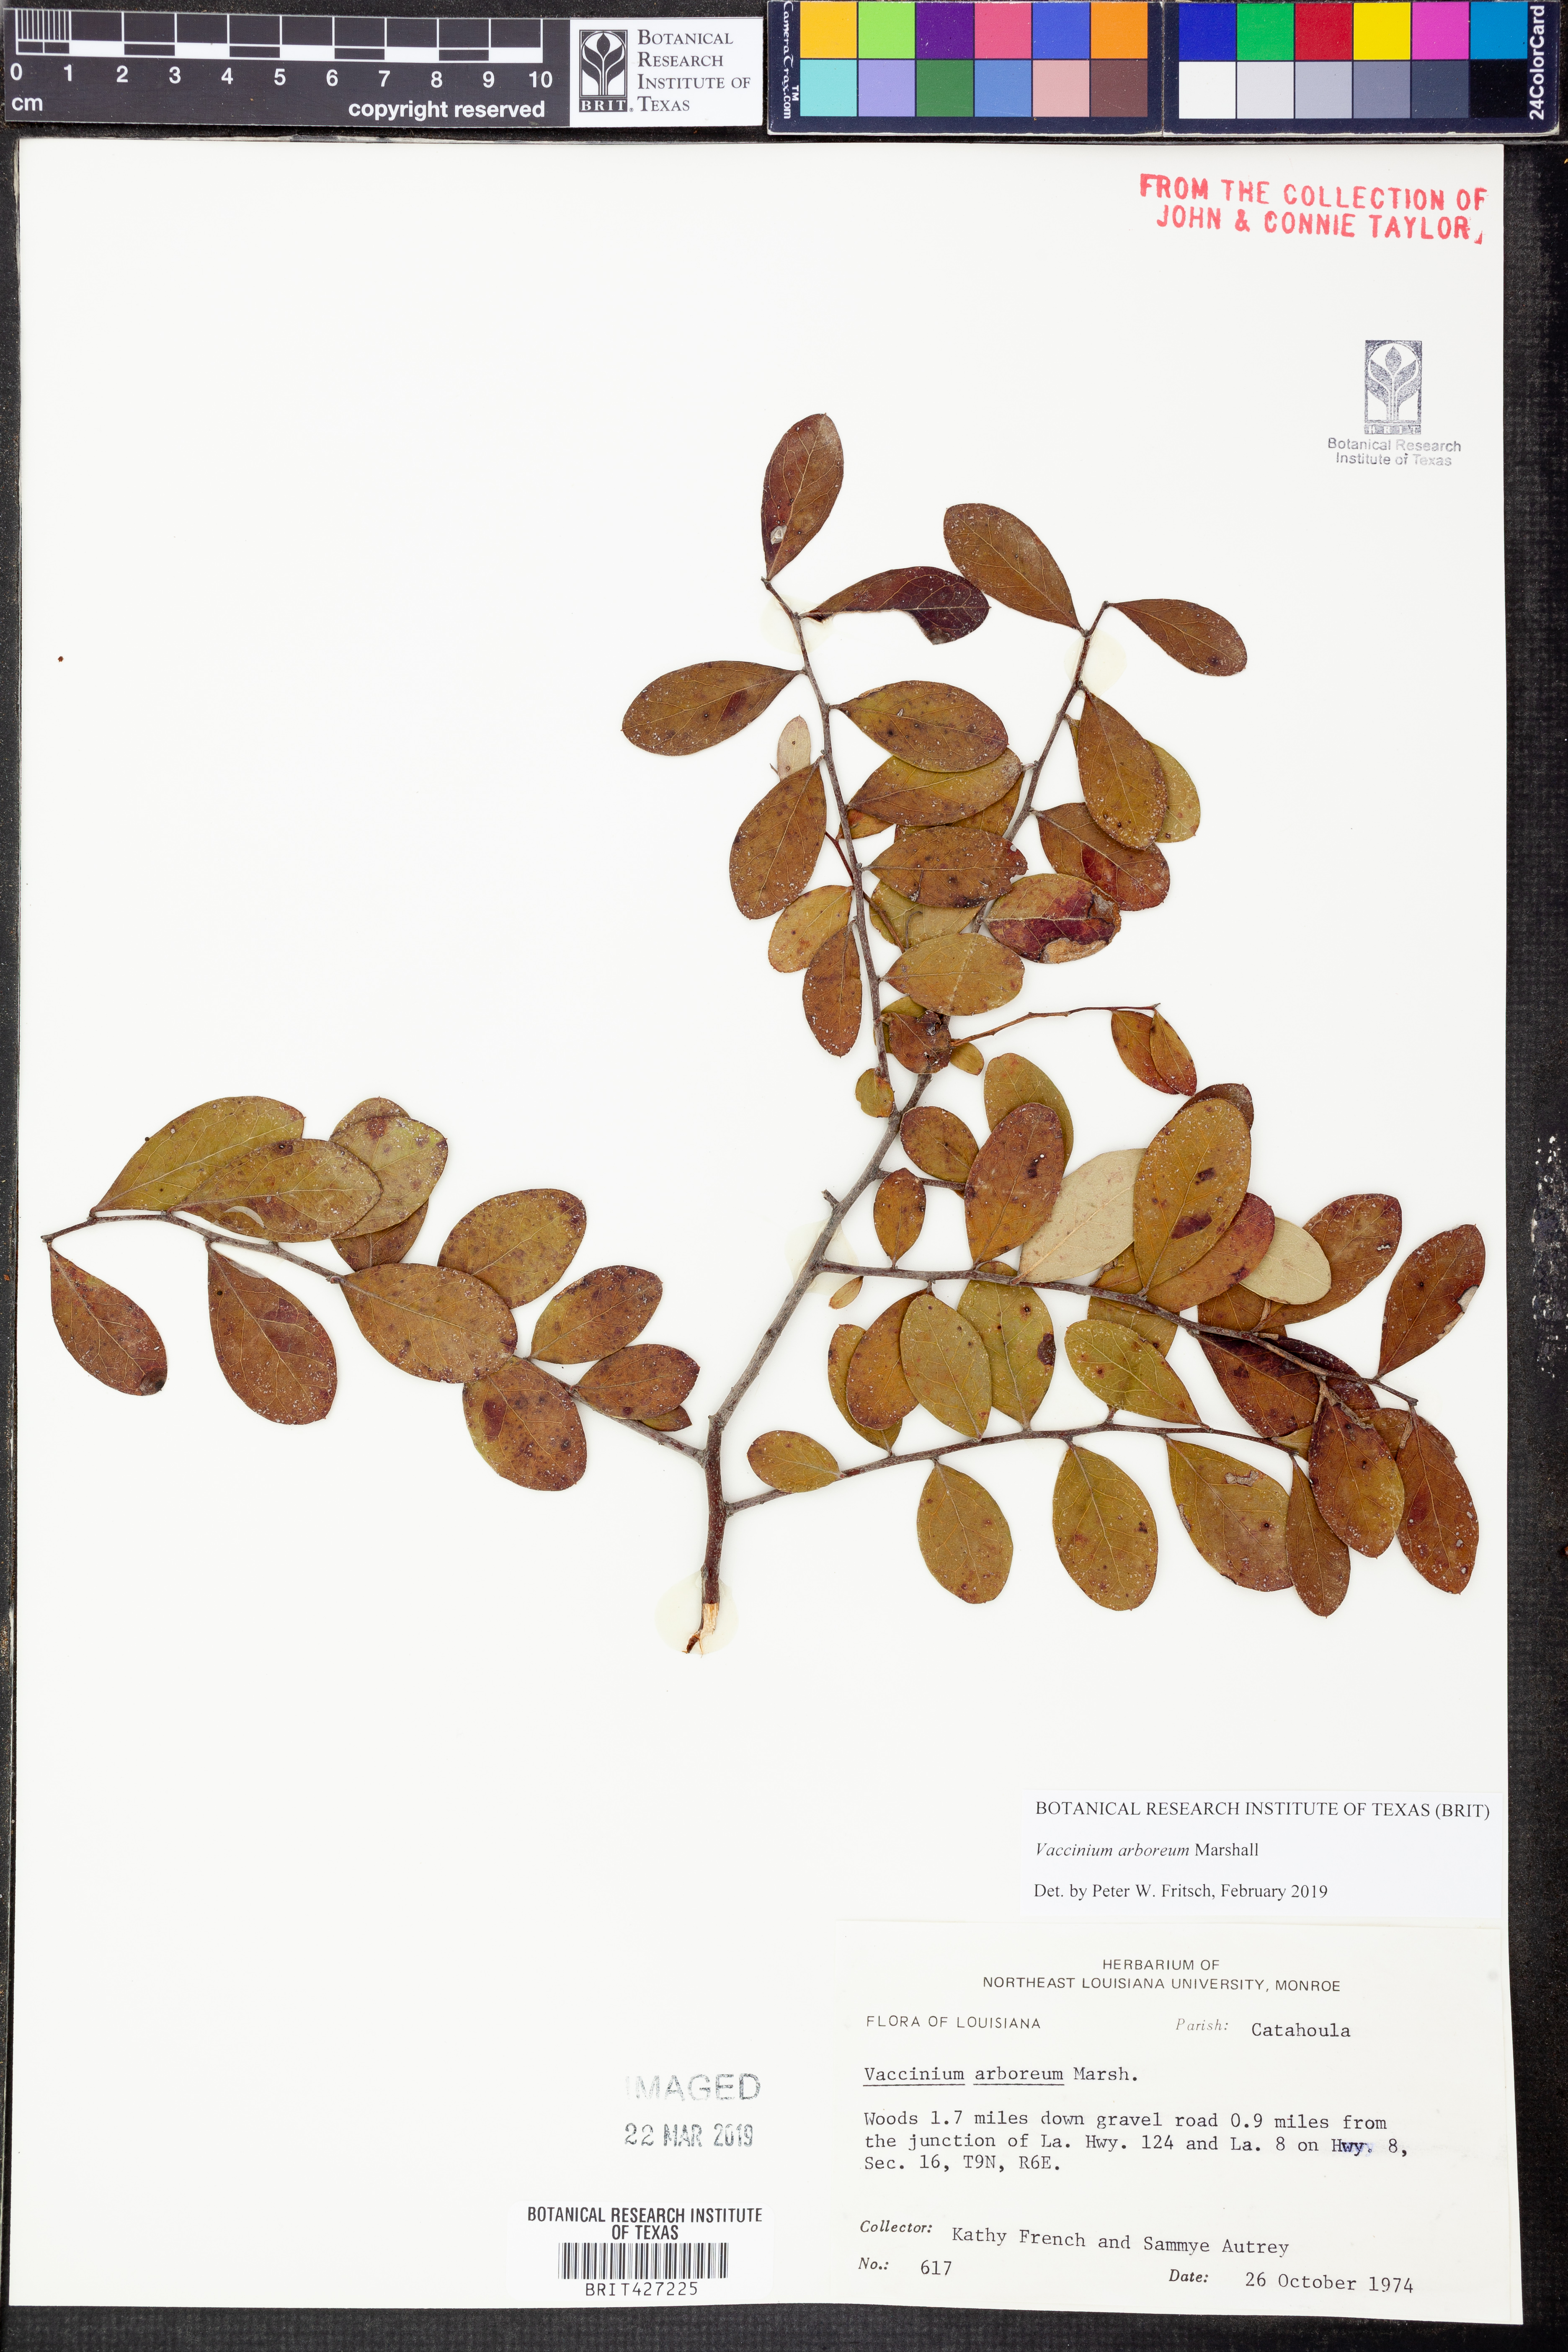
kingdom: Plantae
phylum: Tracheophyta
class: Magnoliopsida
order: Ericales
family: Ericaceae
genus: Vaccinium
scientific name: Vaccinium arboreum
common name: Farkleberry
